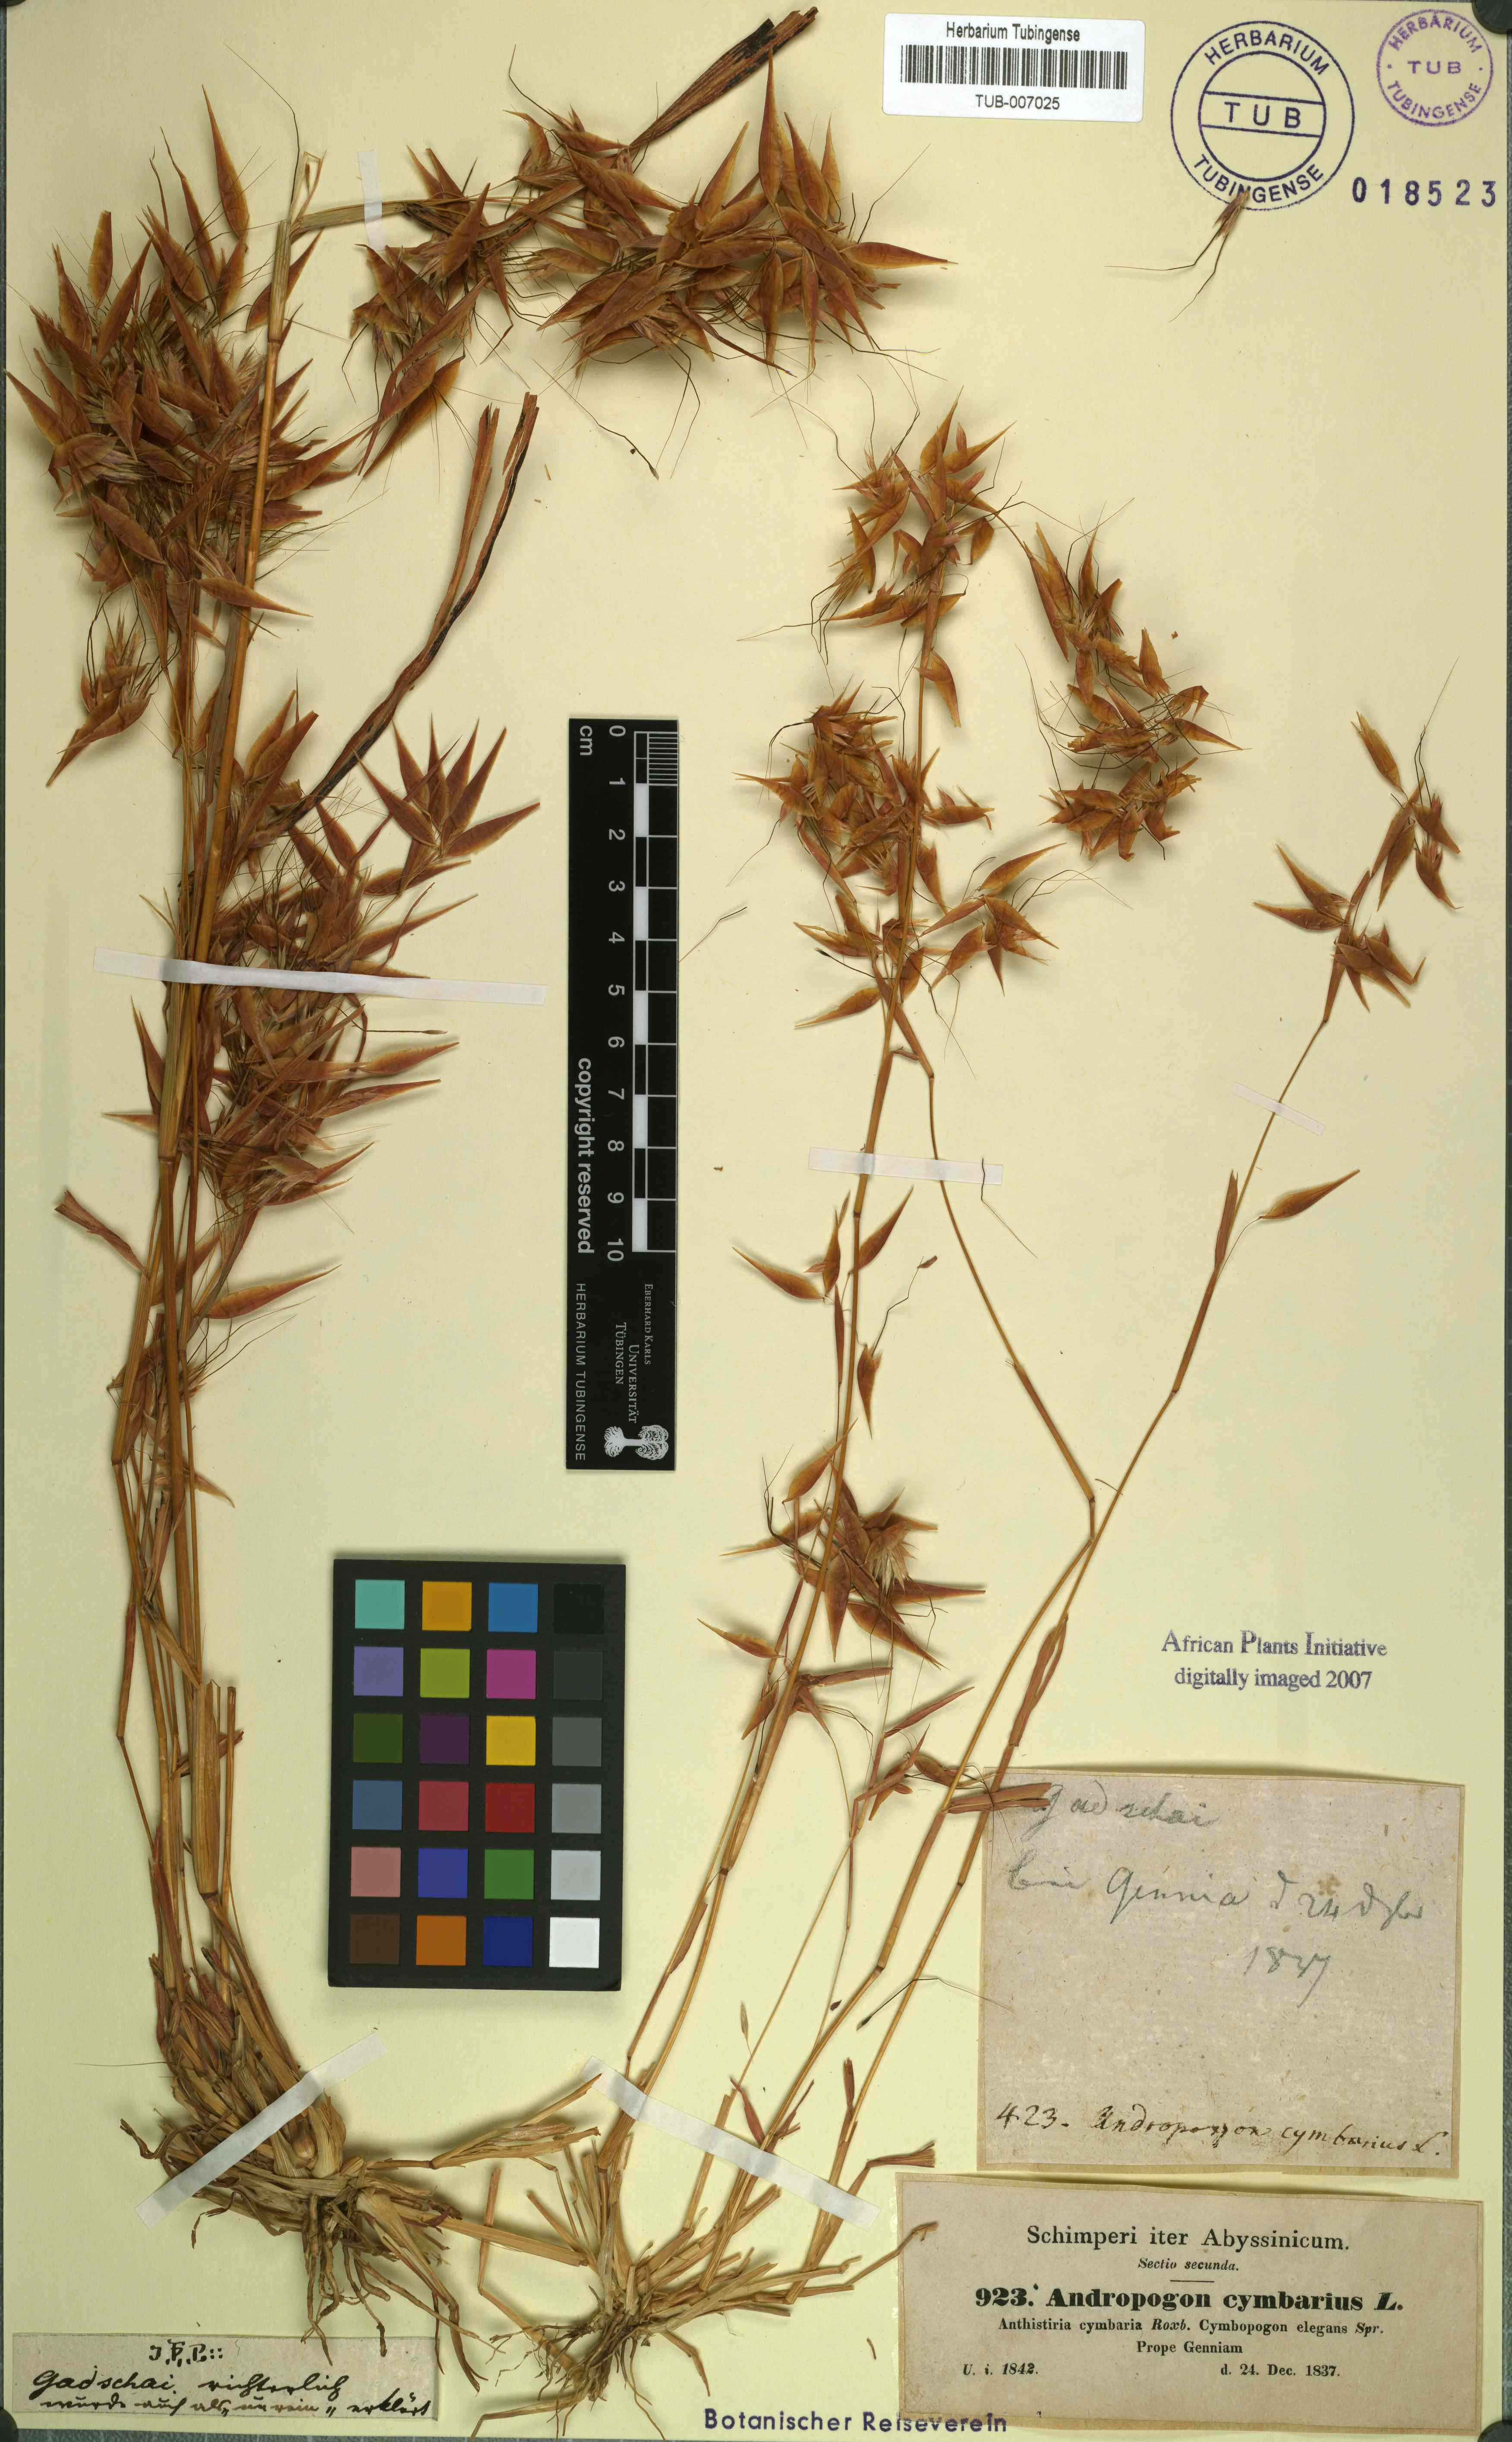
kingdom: Plantae
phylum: Tracheophyta
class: Liliopsida
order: Poales
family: Poaceae
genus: Hyparrhenia
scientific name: Hyparrhenia cymbaria
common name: Boat thatching grass
